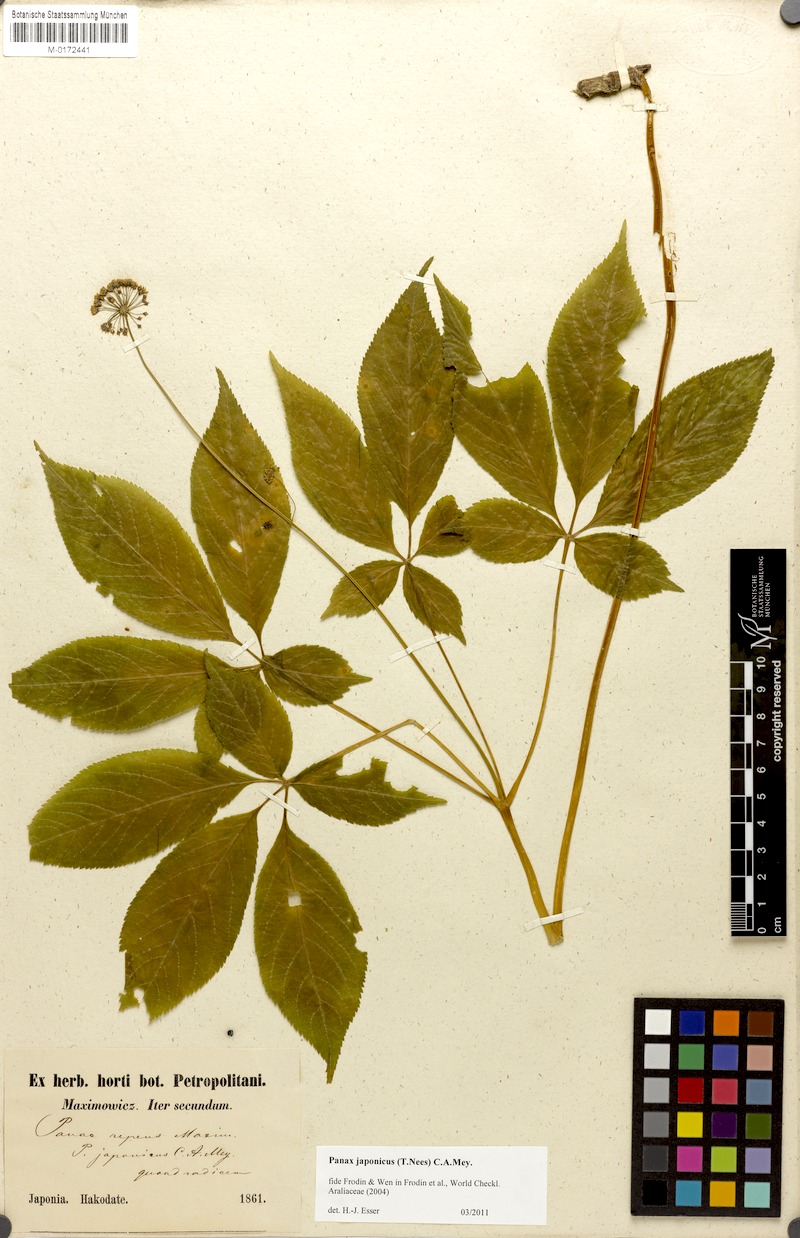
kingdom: Plantae
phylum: Tracheophyta
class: Magnoliopsida
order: Apiales
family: Araliaceae
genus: Panax
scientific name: Panax japonicus
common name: Japanese ginseng
